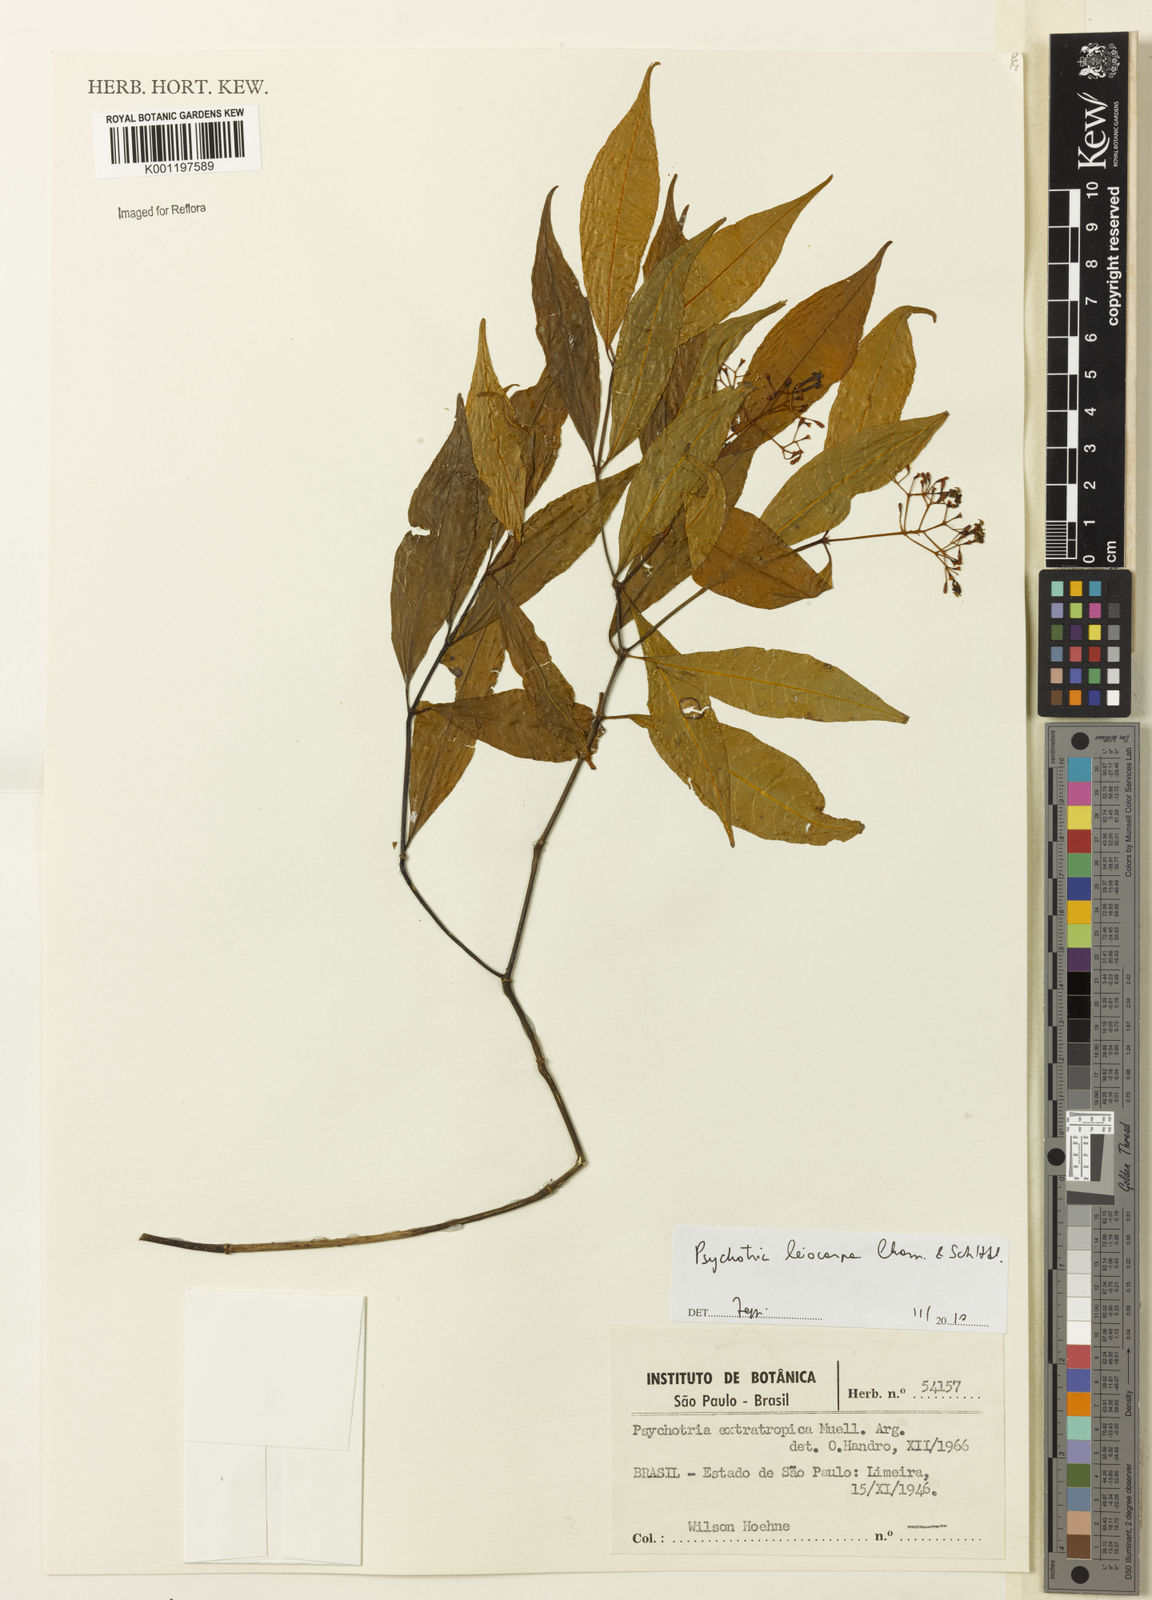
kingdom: Plantae
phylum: Tracheophyta
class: Magnoliopsida
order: Gentianales
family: Rubiaceae
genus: Psychotria
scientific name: Psychotria leiocarpa
